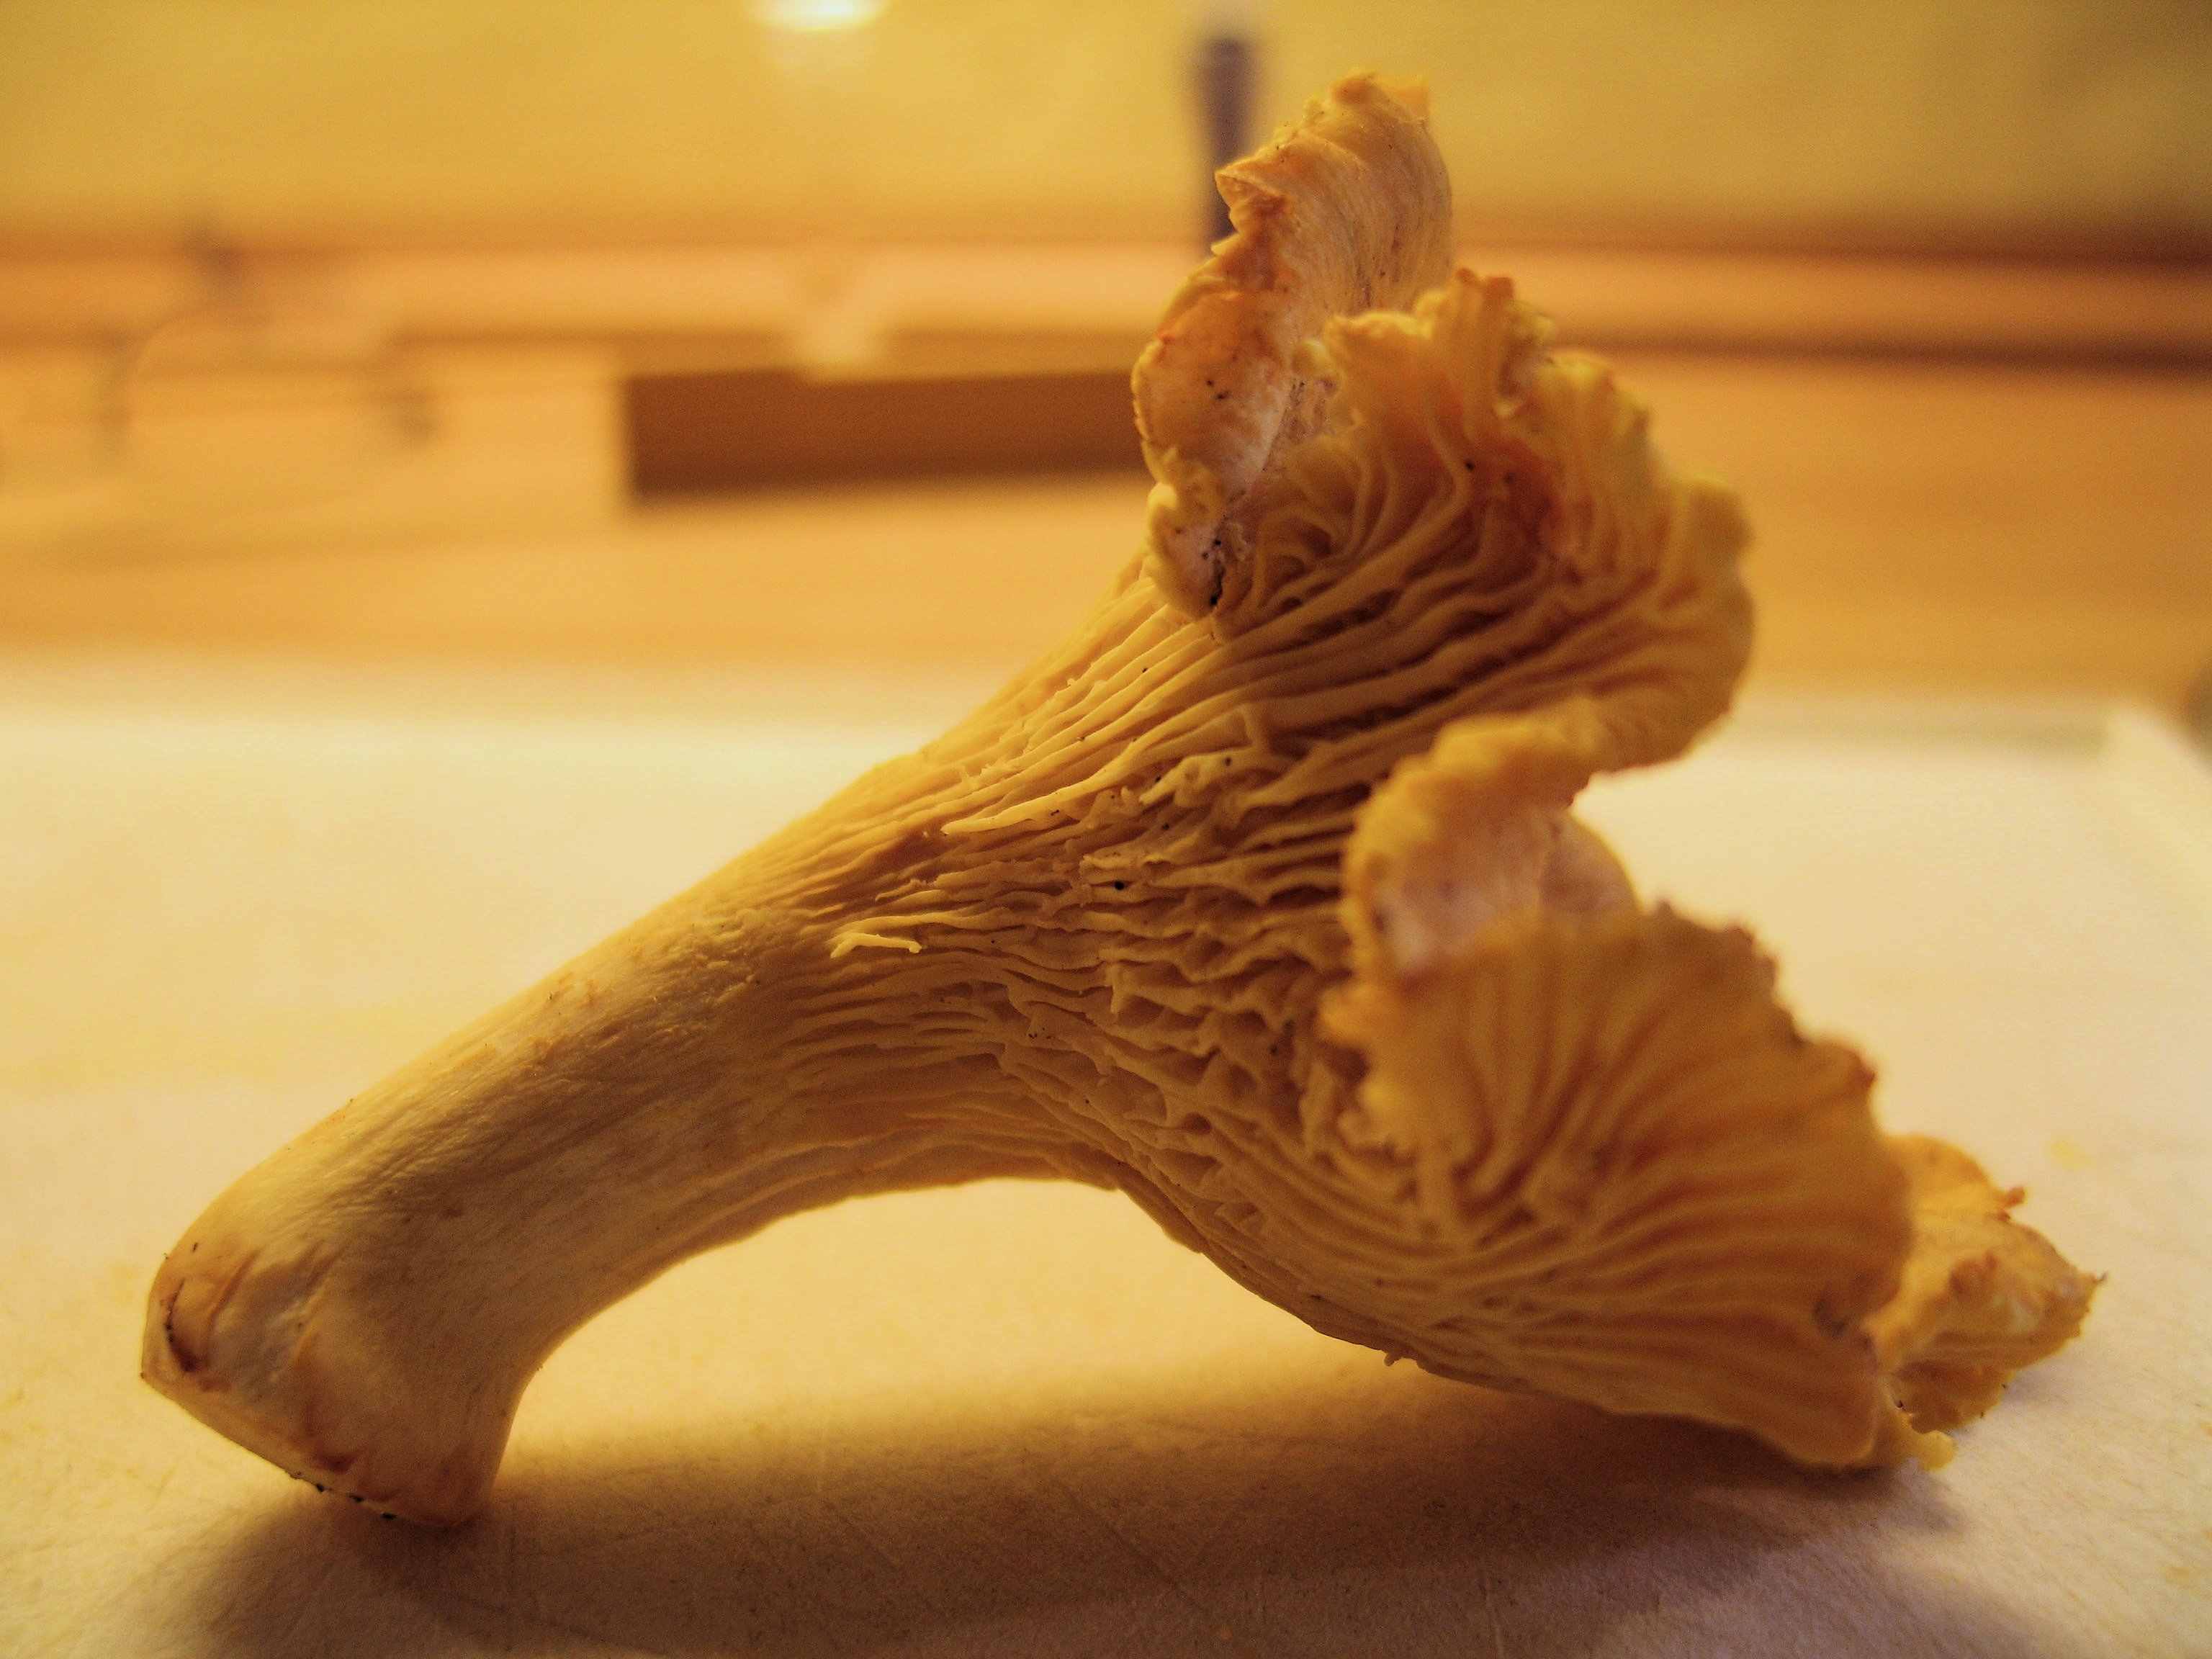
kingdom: Fungi
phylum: Basidiomycota
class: Agaricomycetes
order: Cantharellales
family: Hydnaceae
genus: Cantharellus
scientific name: Cantharellus cibarius
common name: almindelig kantarel
